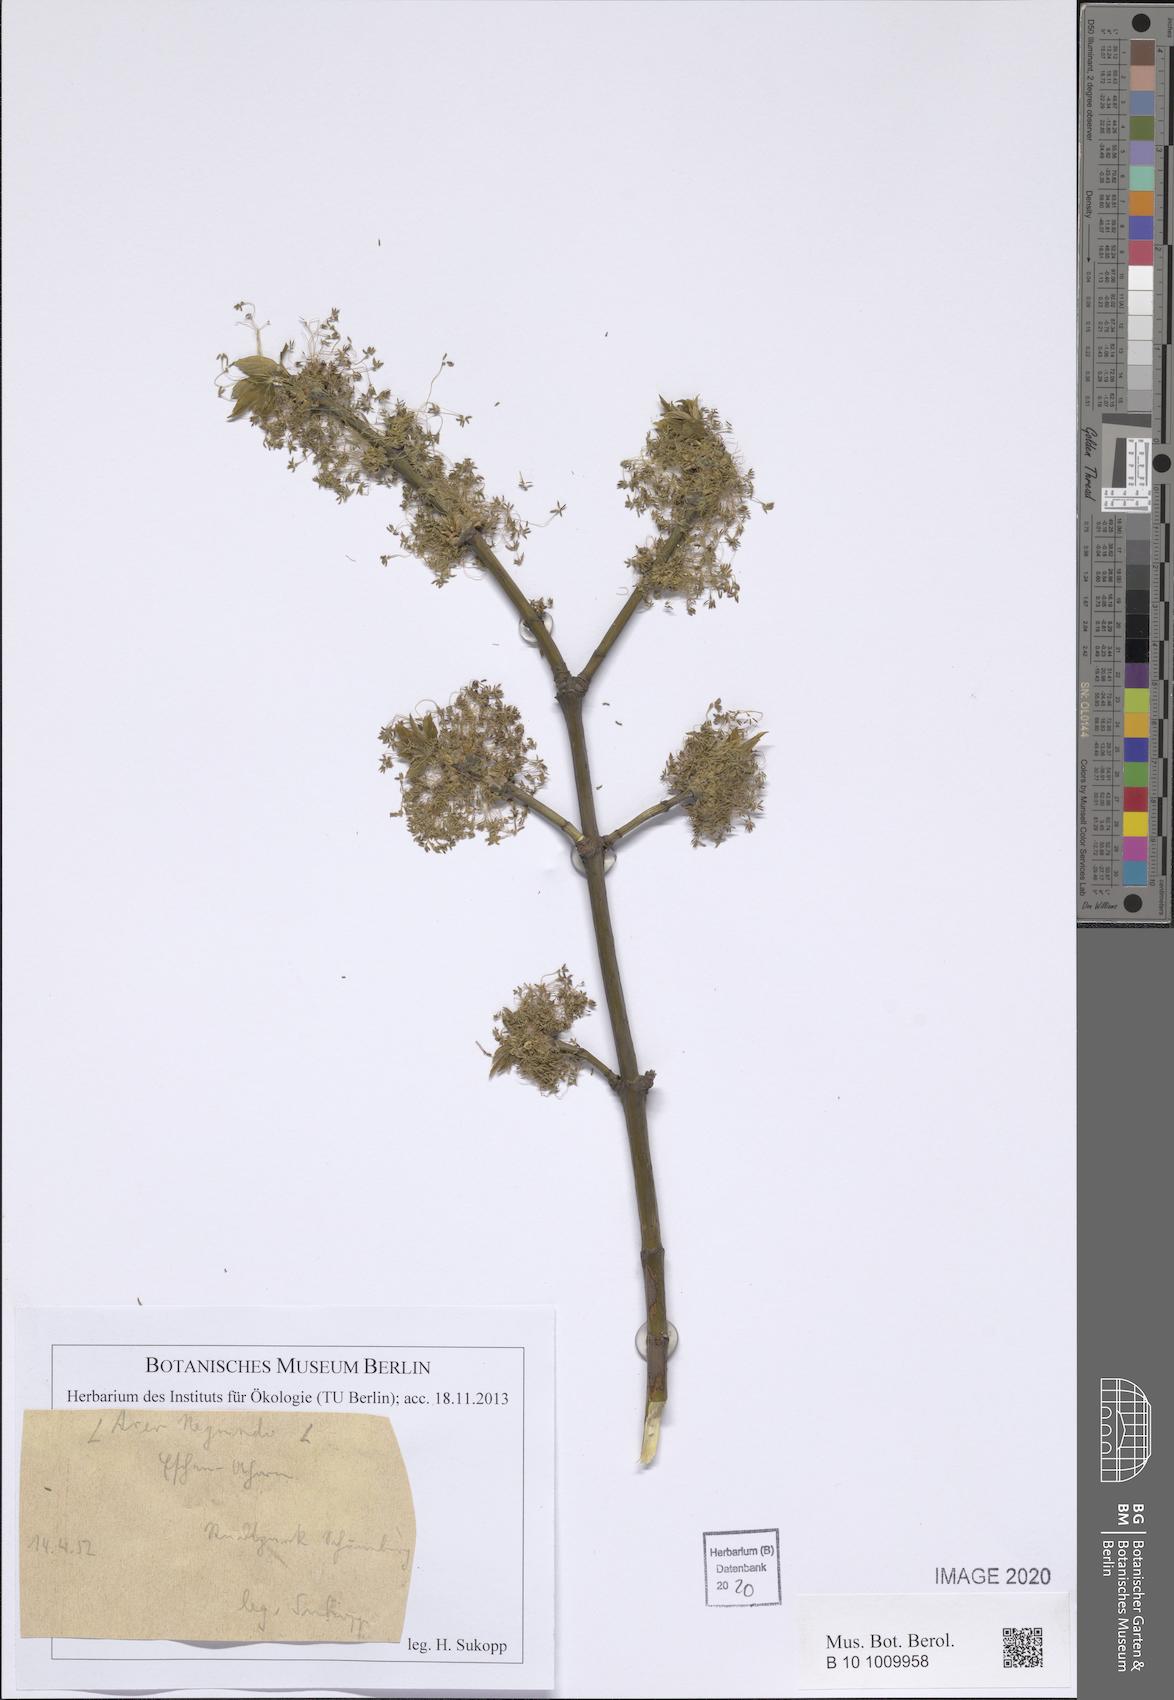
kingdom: Plantae
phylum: Tracheophyta
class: Magnoliopsida
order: Sapindales
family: Sapindaceae
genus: Acer
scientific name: Acer negundo
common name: Ashleaf maple
